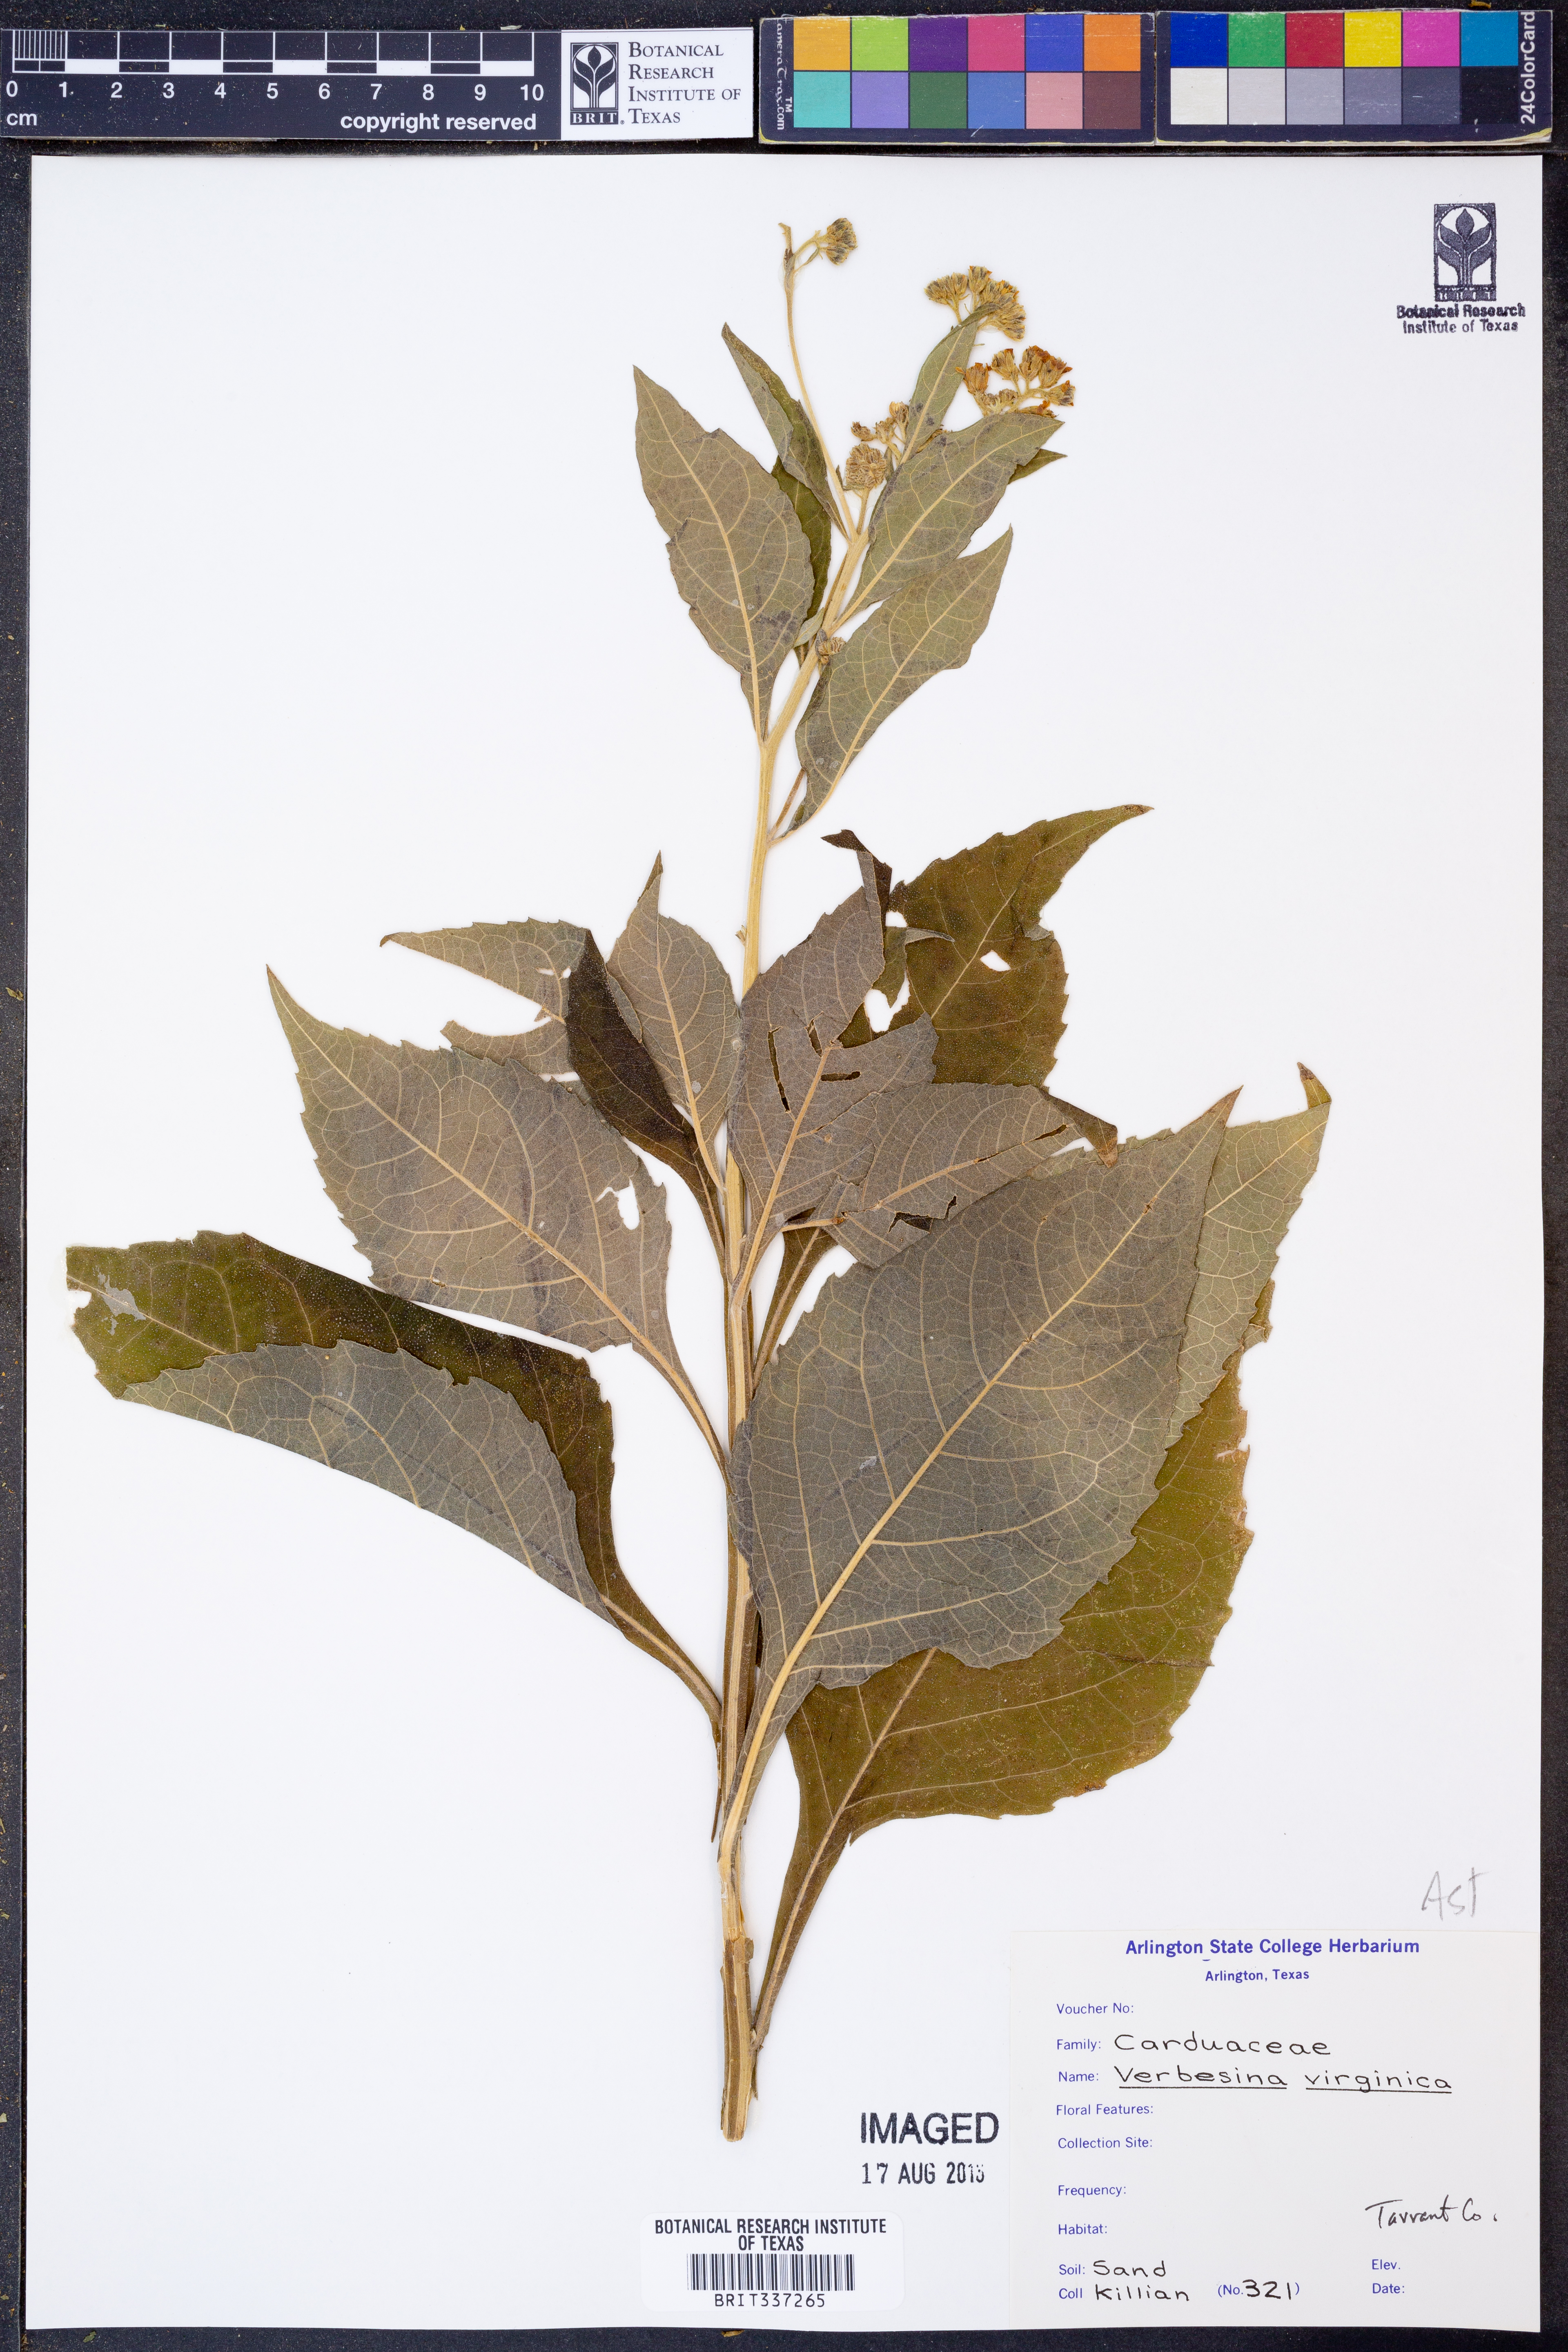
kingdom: Plantae
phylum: Tracheophyta
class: Magnoliopsida
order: Asterales
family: Asteraceae
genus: Verbesina
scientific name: Verbesina virginica
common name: Frostweed
